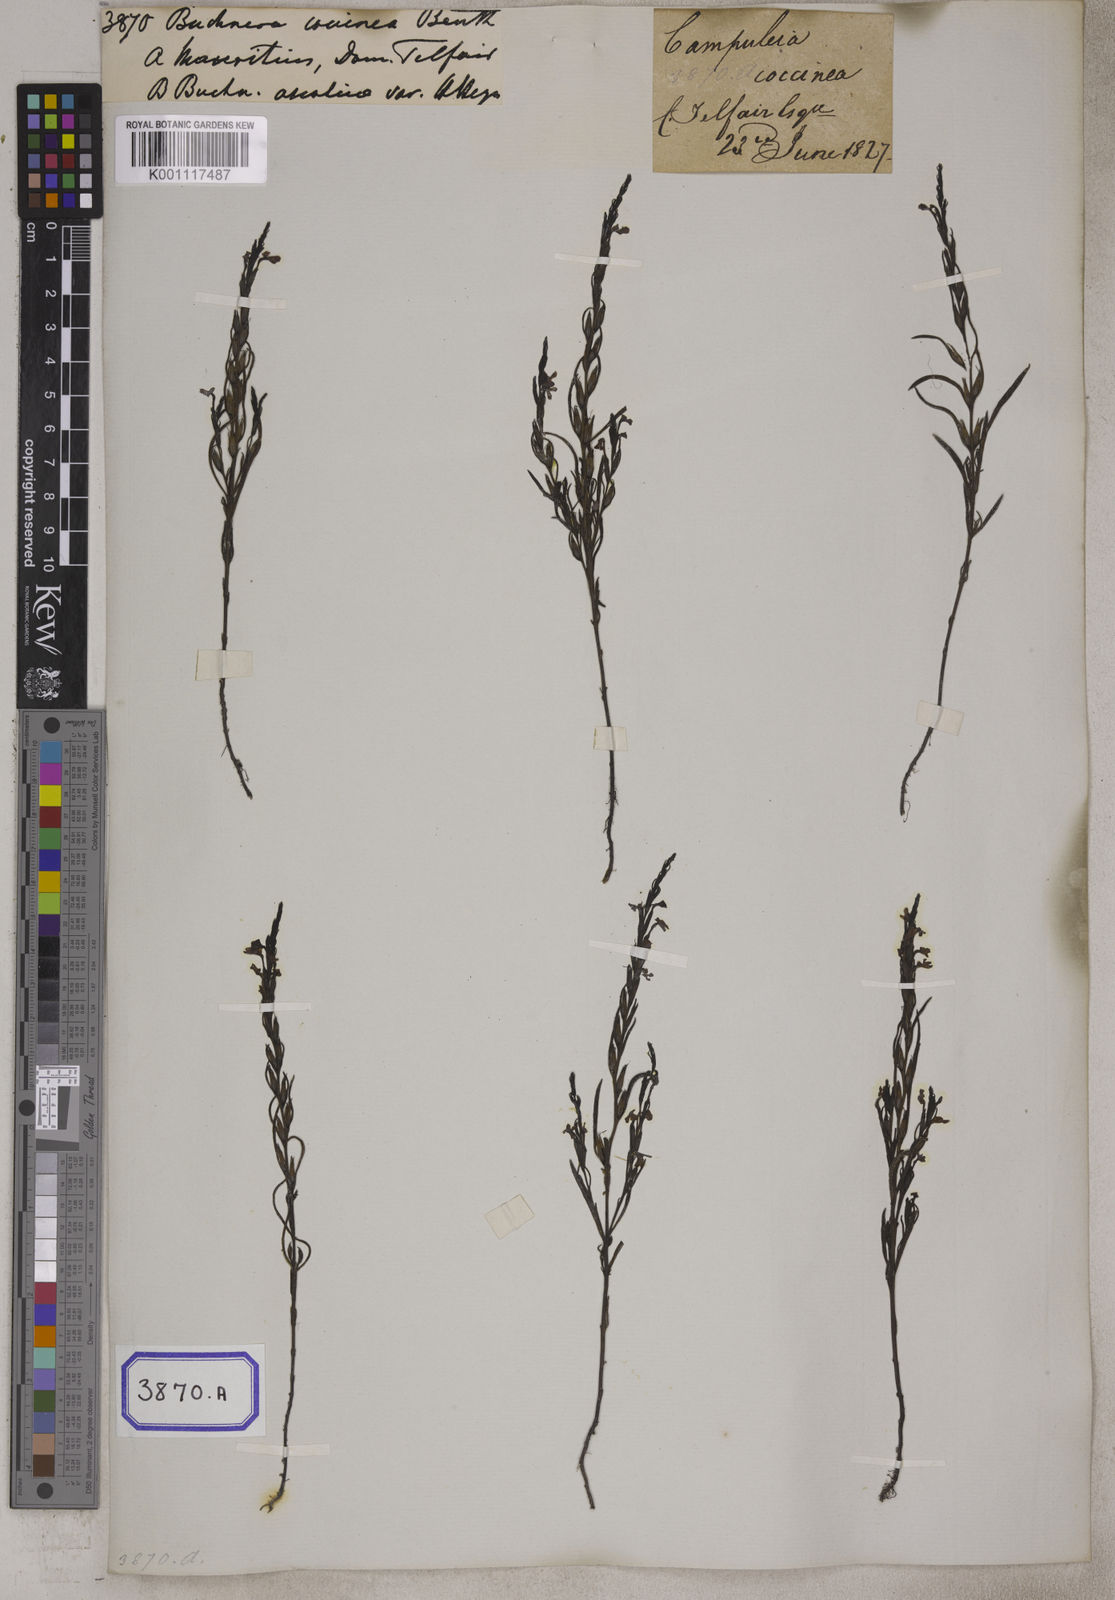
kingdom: Plantae
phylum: Tracheophyta
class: Magnoliopsida
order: Lamiales
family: Orobanchaceae
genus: Striga
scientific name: Striga asiatica
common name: Asiatic witchweed
